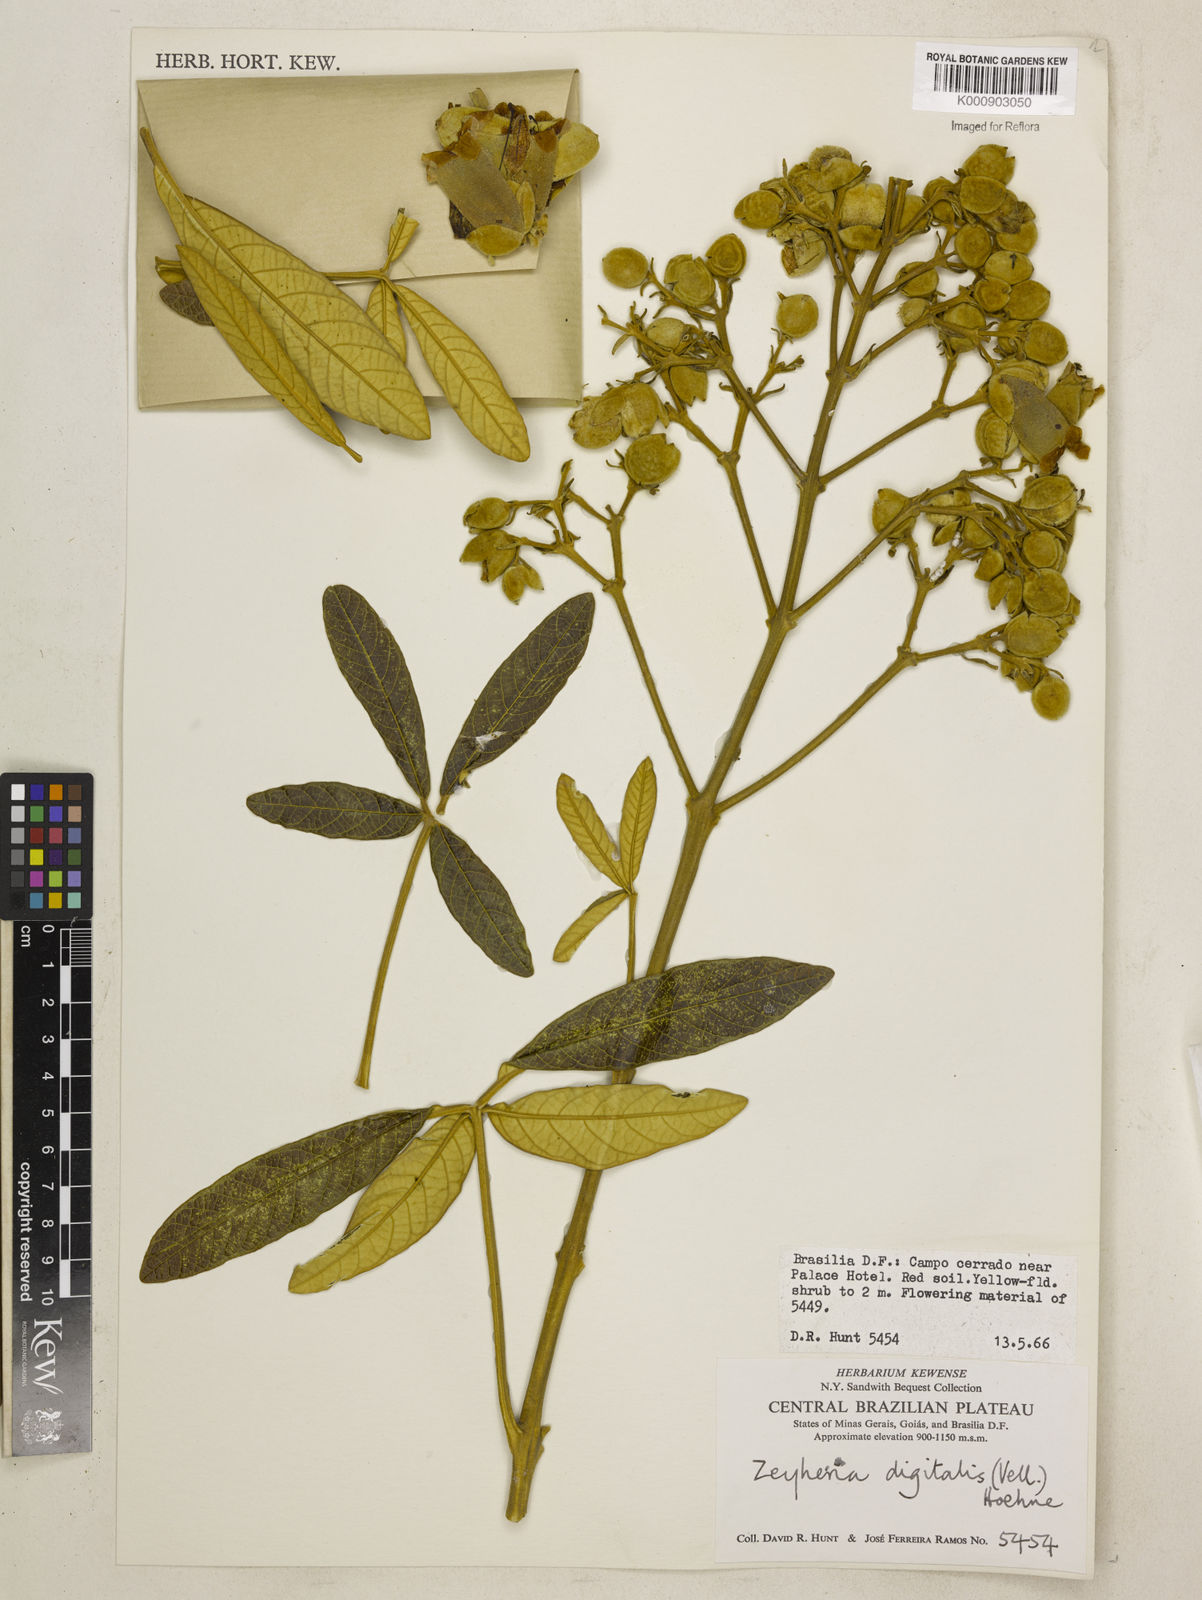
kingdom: Plantae
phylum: Tracheophyta
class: Magnoliopsida
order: Lamiales
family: Bignoniaceae
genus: Zeyheria
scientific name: Zeyheria
